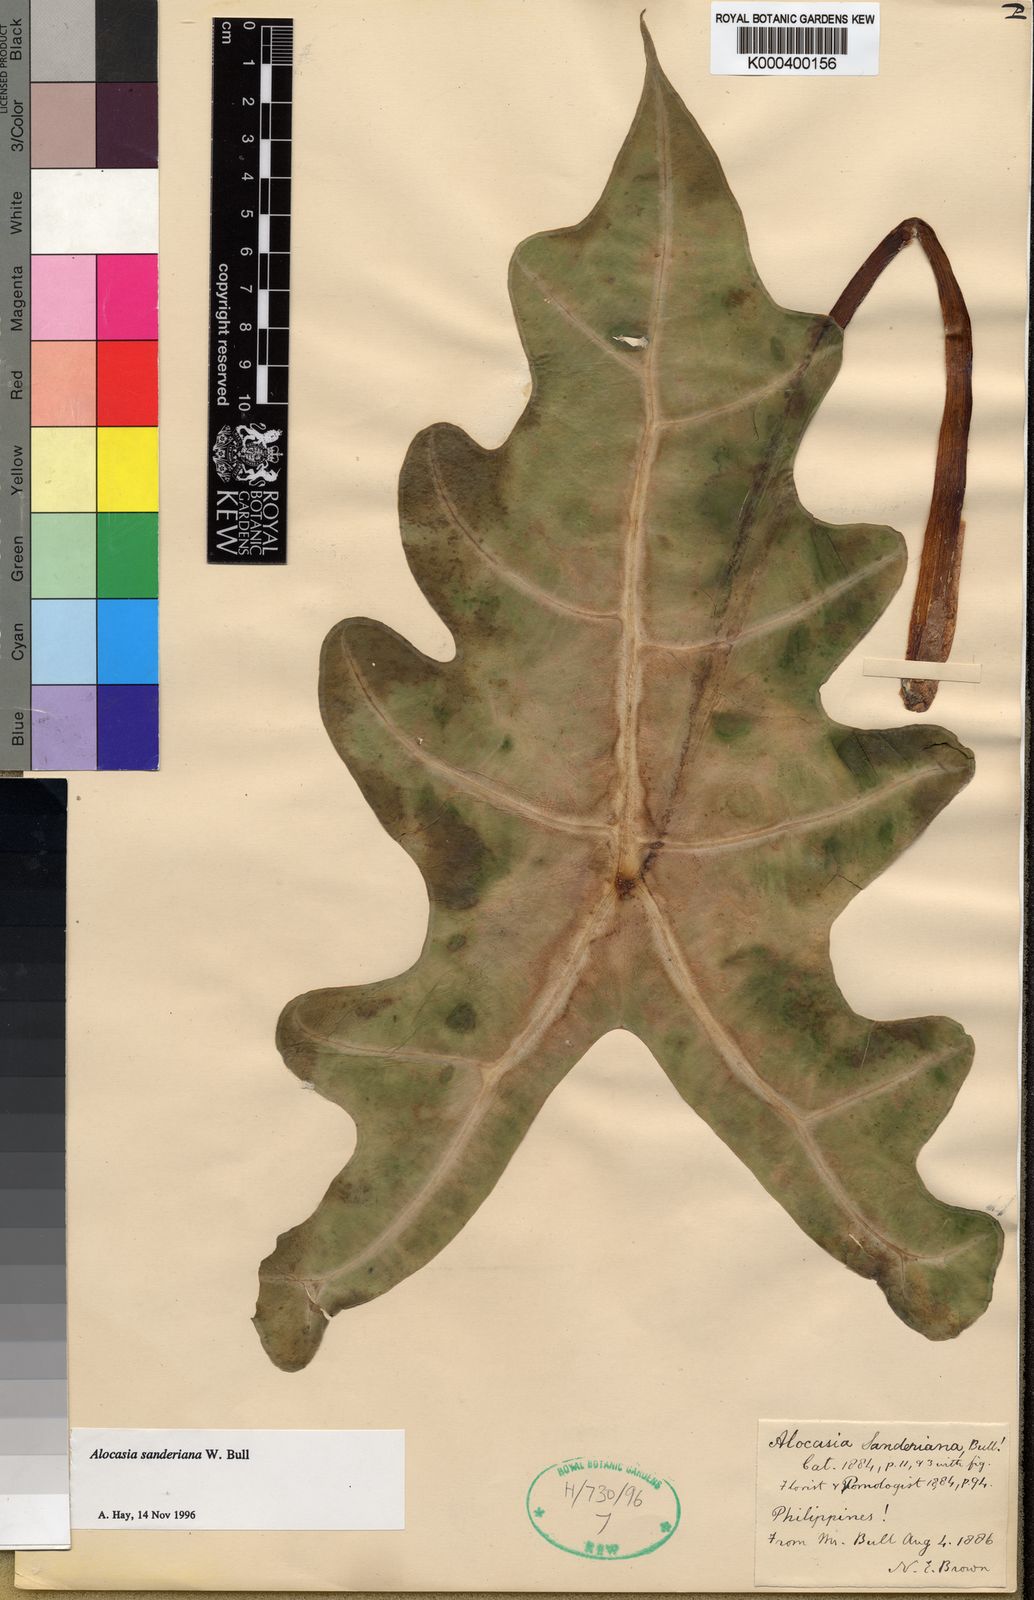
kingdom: Plantae
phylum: Tracheophyta
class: Liliopsida
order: Alismatales
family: Araceae
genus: Alocasia
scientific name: Alocasia sanderiana
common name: Sander's alocasia
